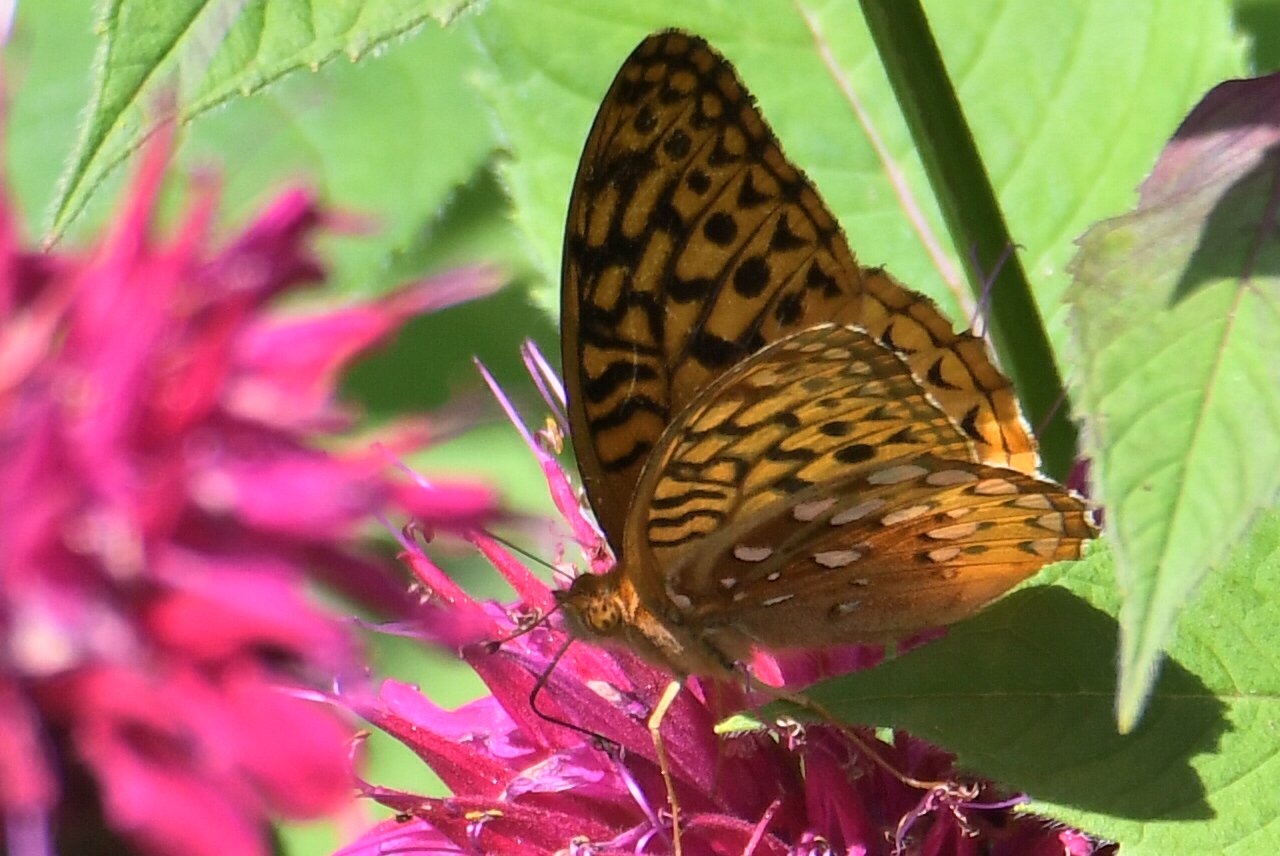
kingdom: Animalia
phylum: Arthropoda
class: Insecta
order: Lepidoptera
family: Nymphalidae
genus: Speyeria
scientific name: Speyeria cybele
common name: Great Spangled Fritillary
